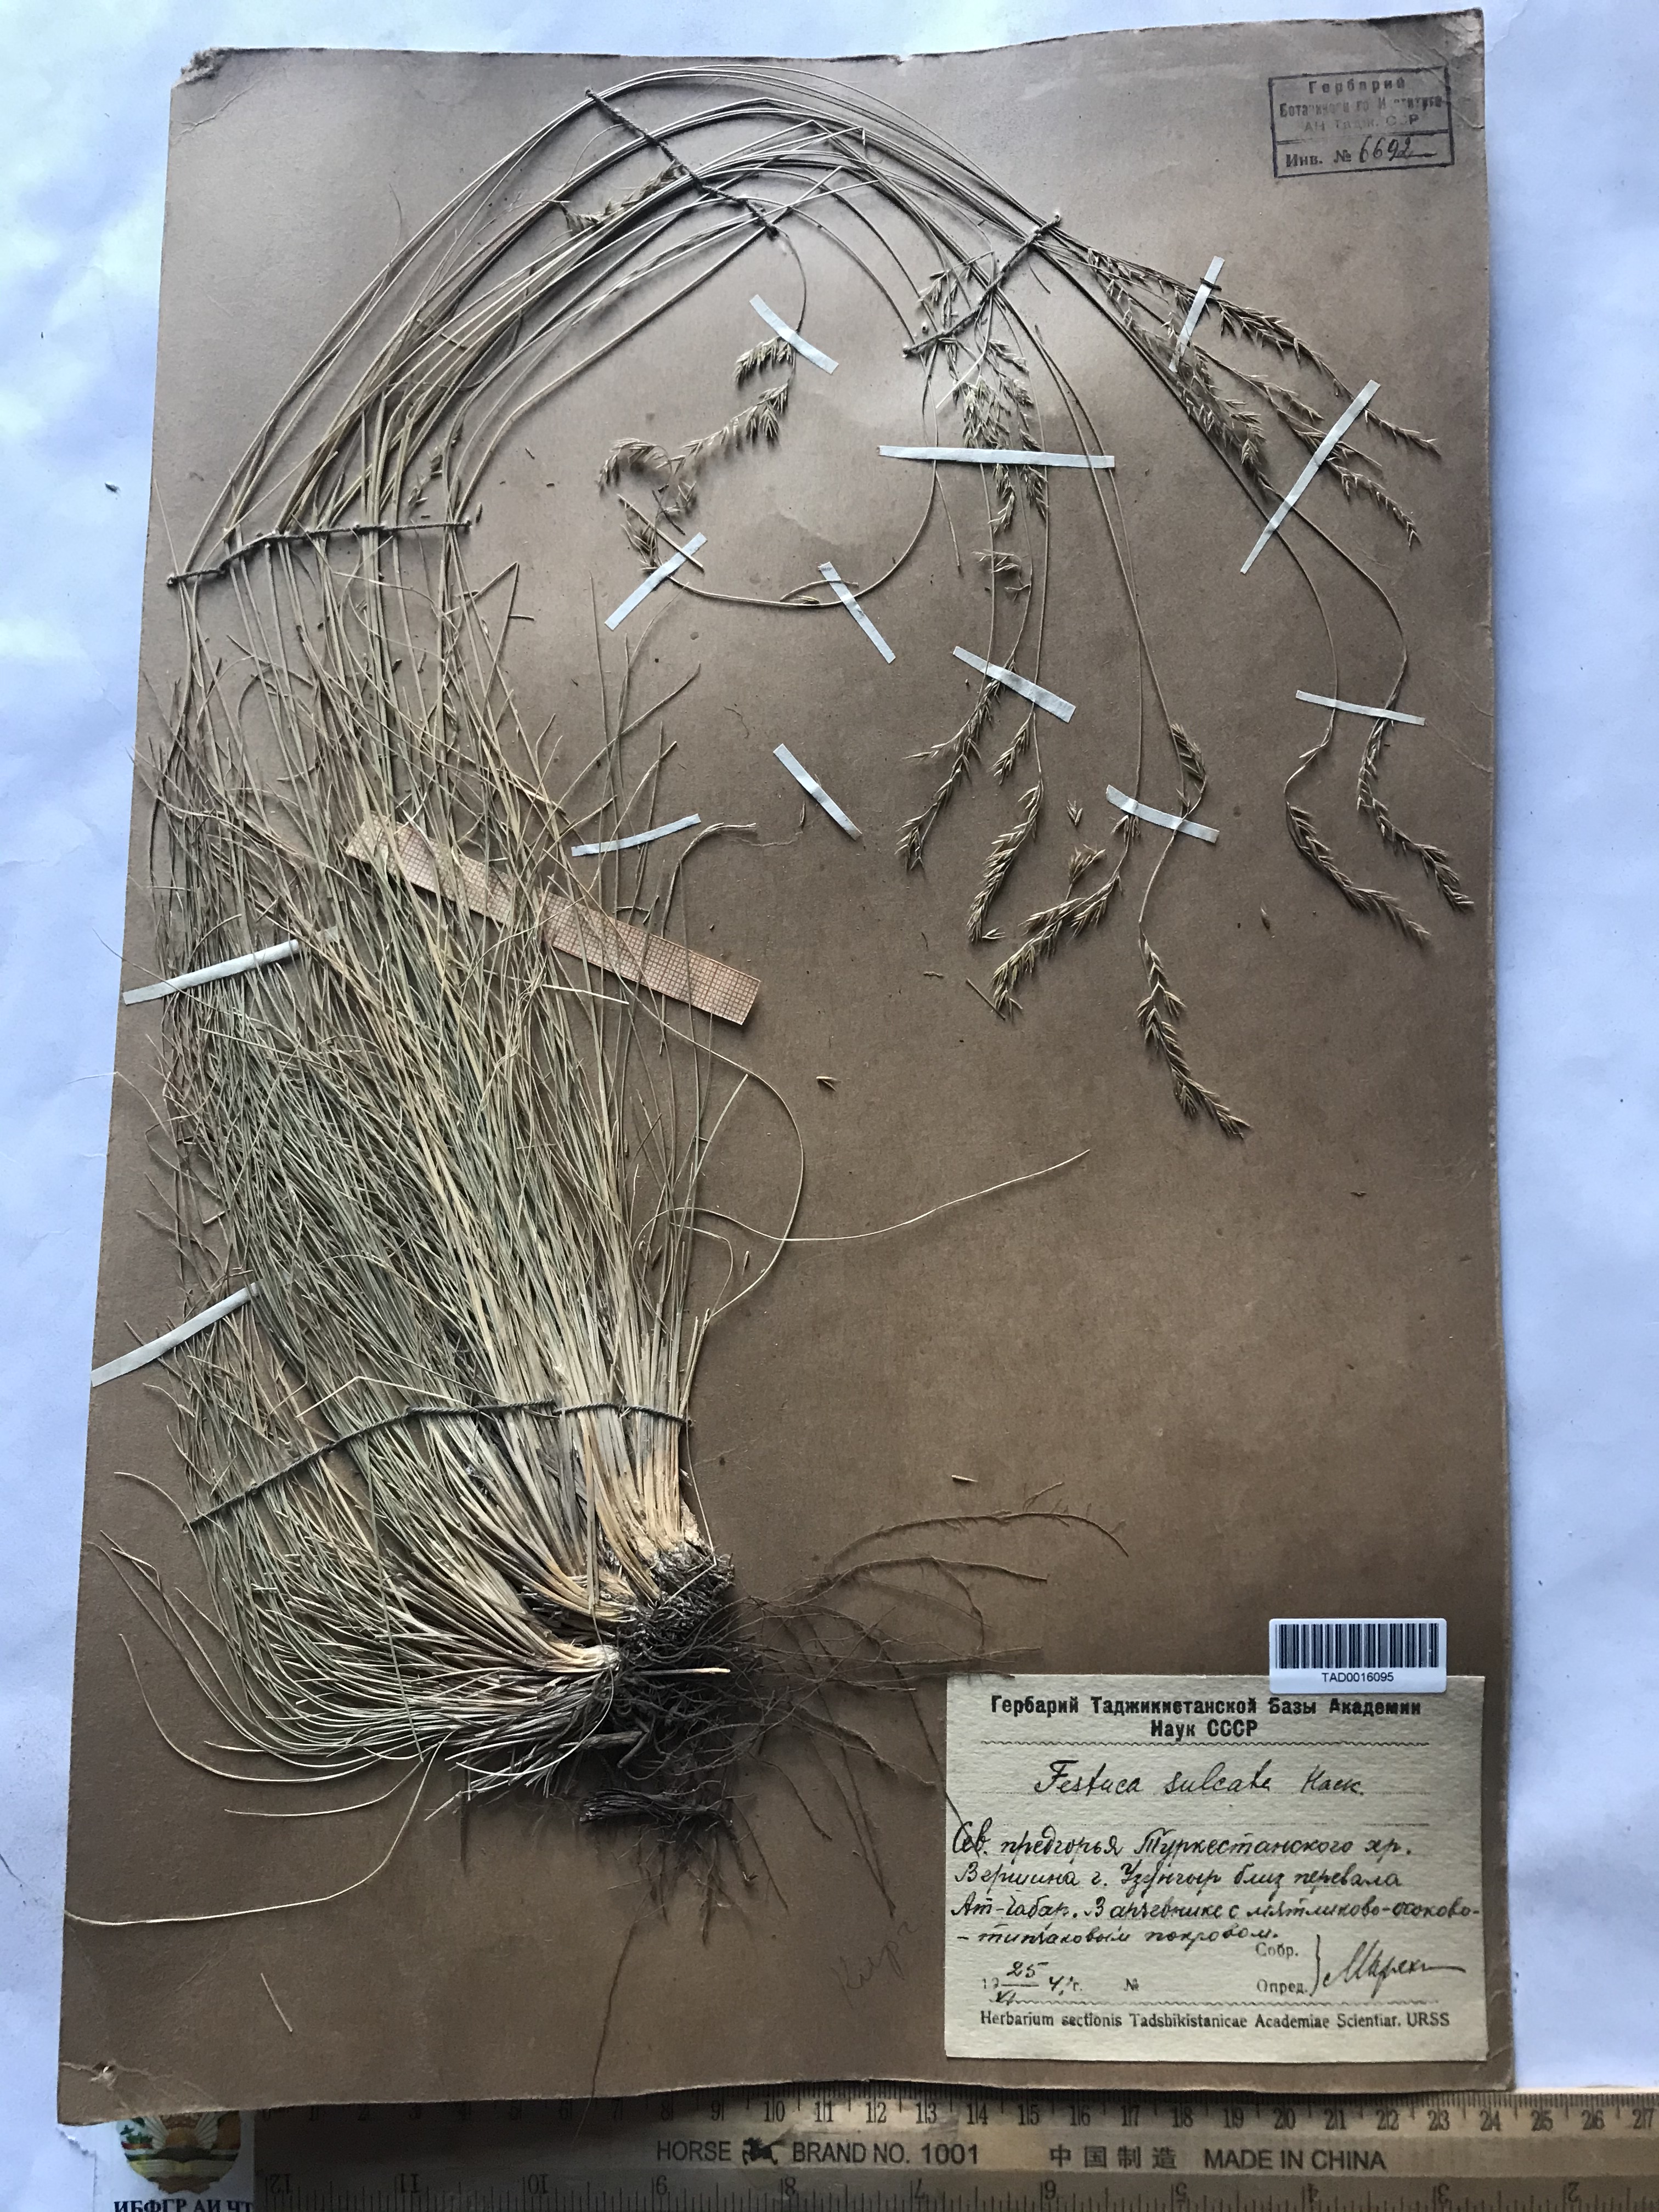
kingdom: Plantae
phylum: Tracheophyta
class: Liliopsida
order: Poales
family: Poaceae
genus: Festuca
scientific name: Festuca sulcata
